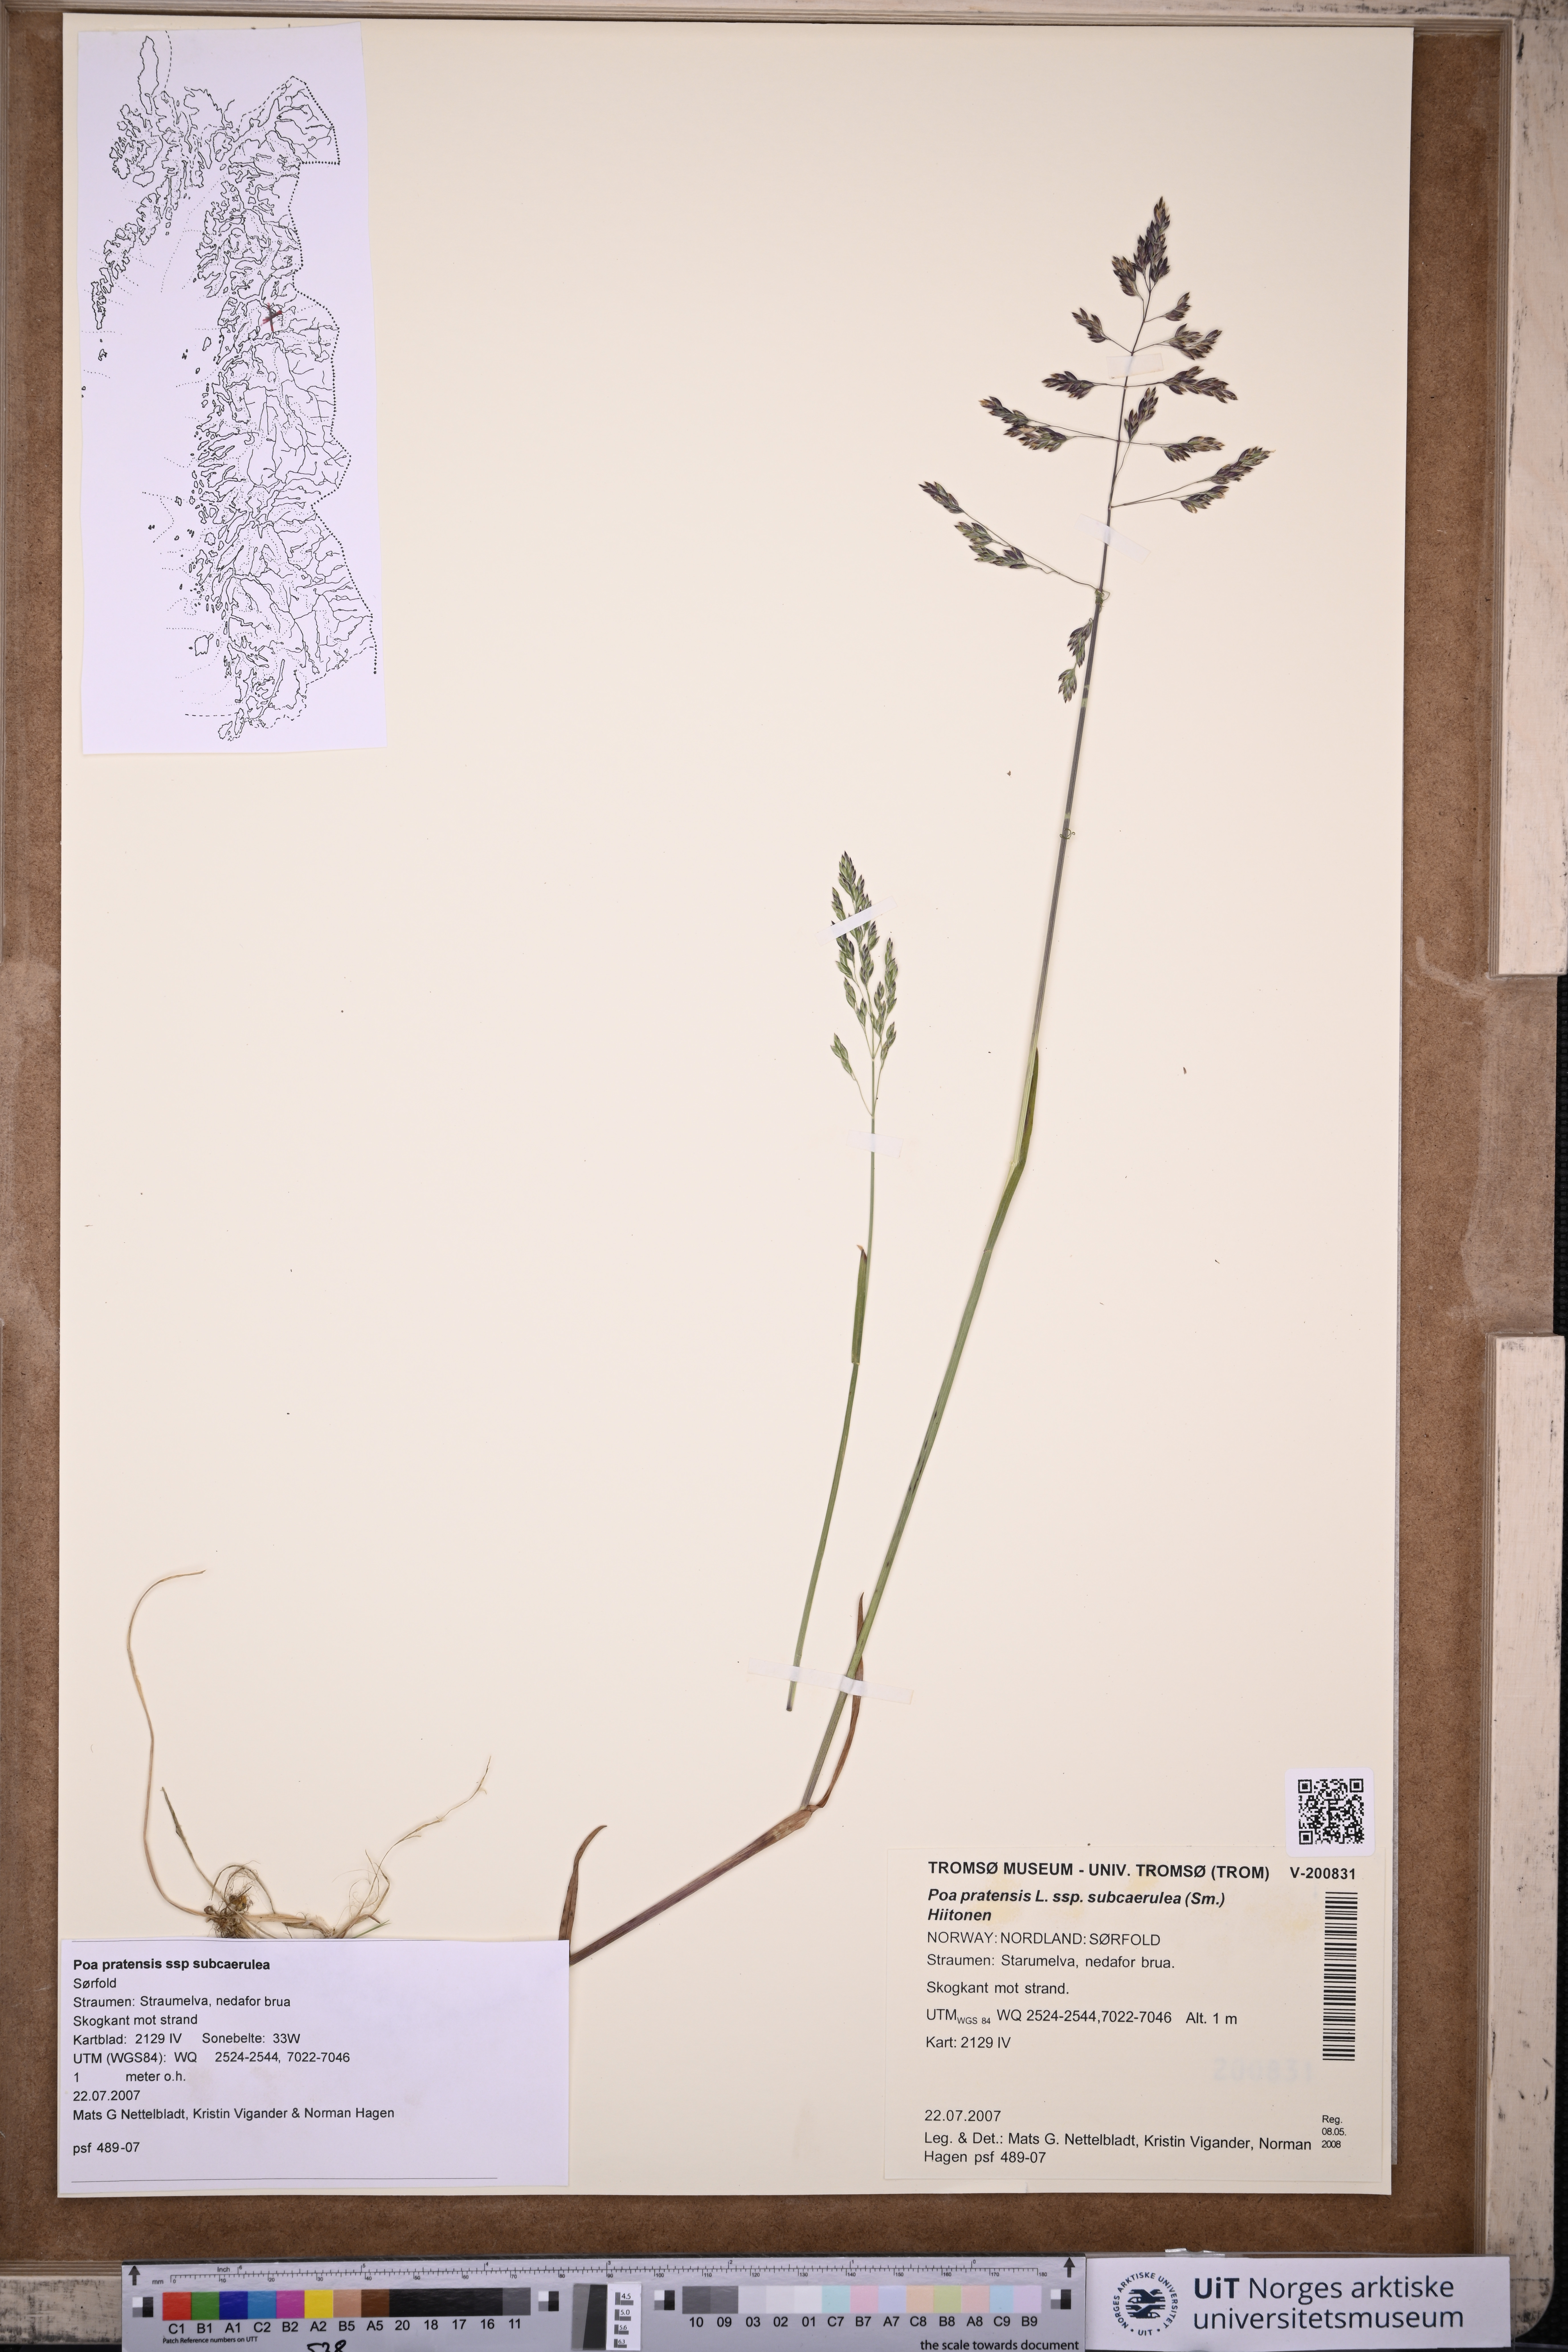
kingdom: Plantae
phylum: Tracheophyta
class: Liliopsida
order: Poales
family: Poaceae
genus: Poa
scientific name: Poa humilis
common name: Spreading meadow-grass
